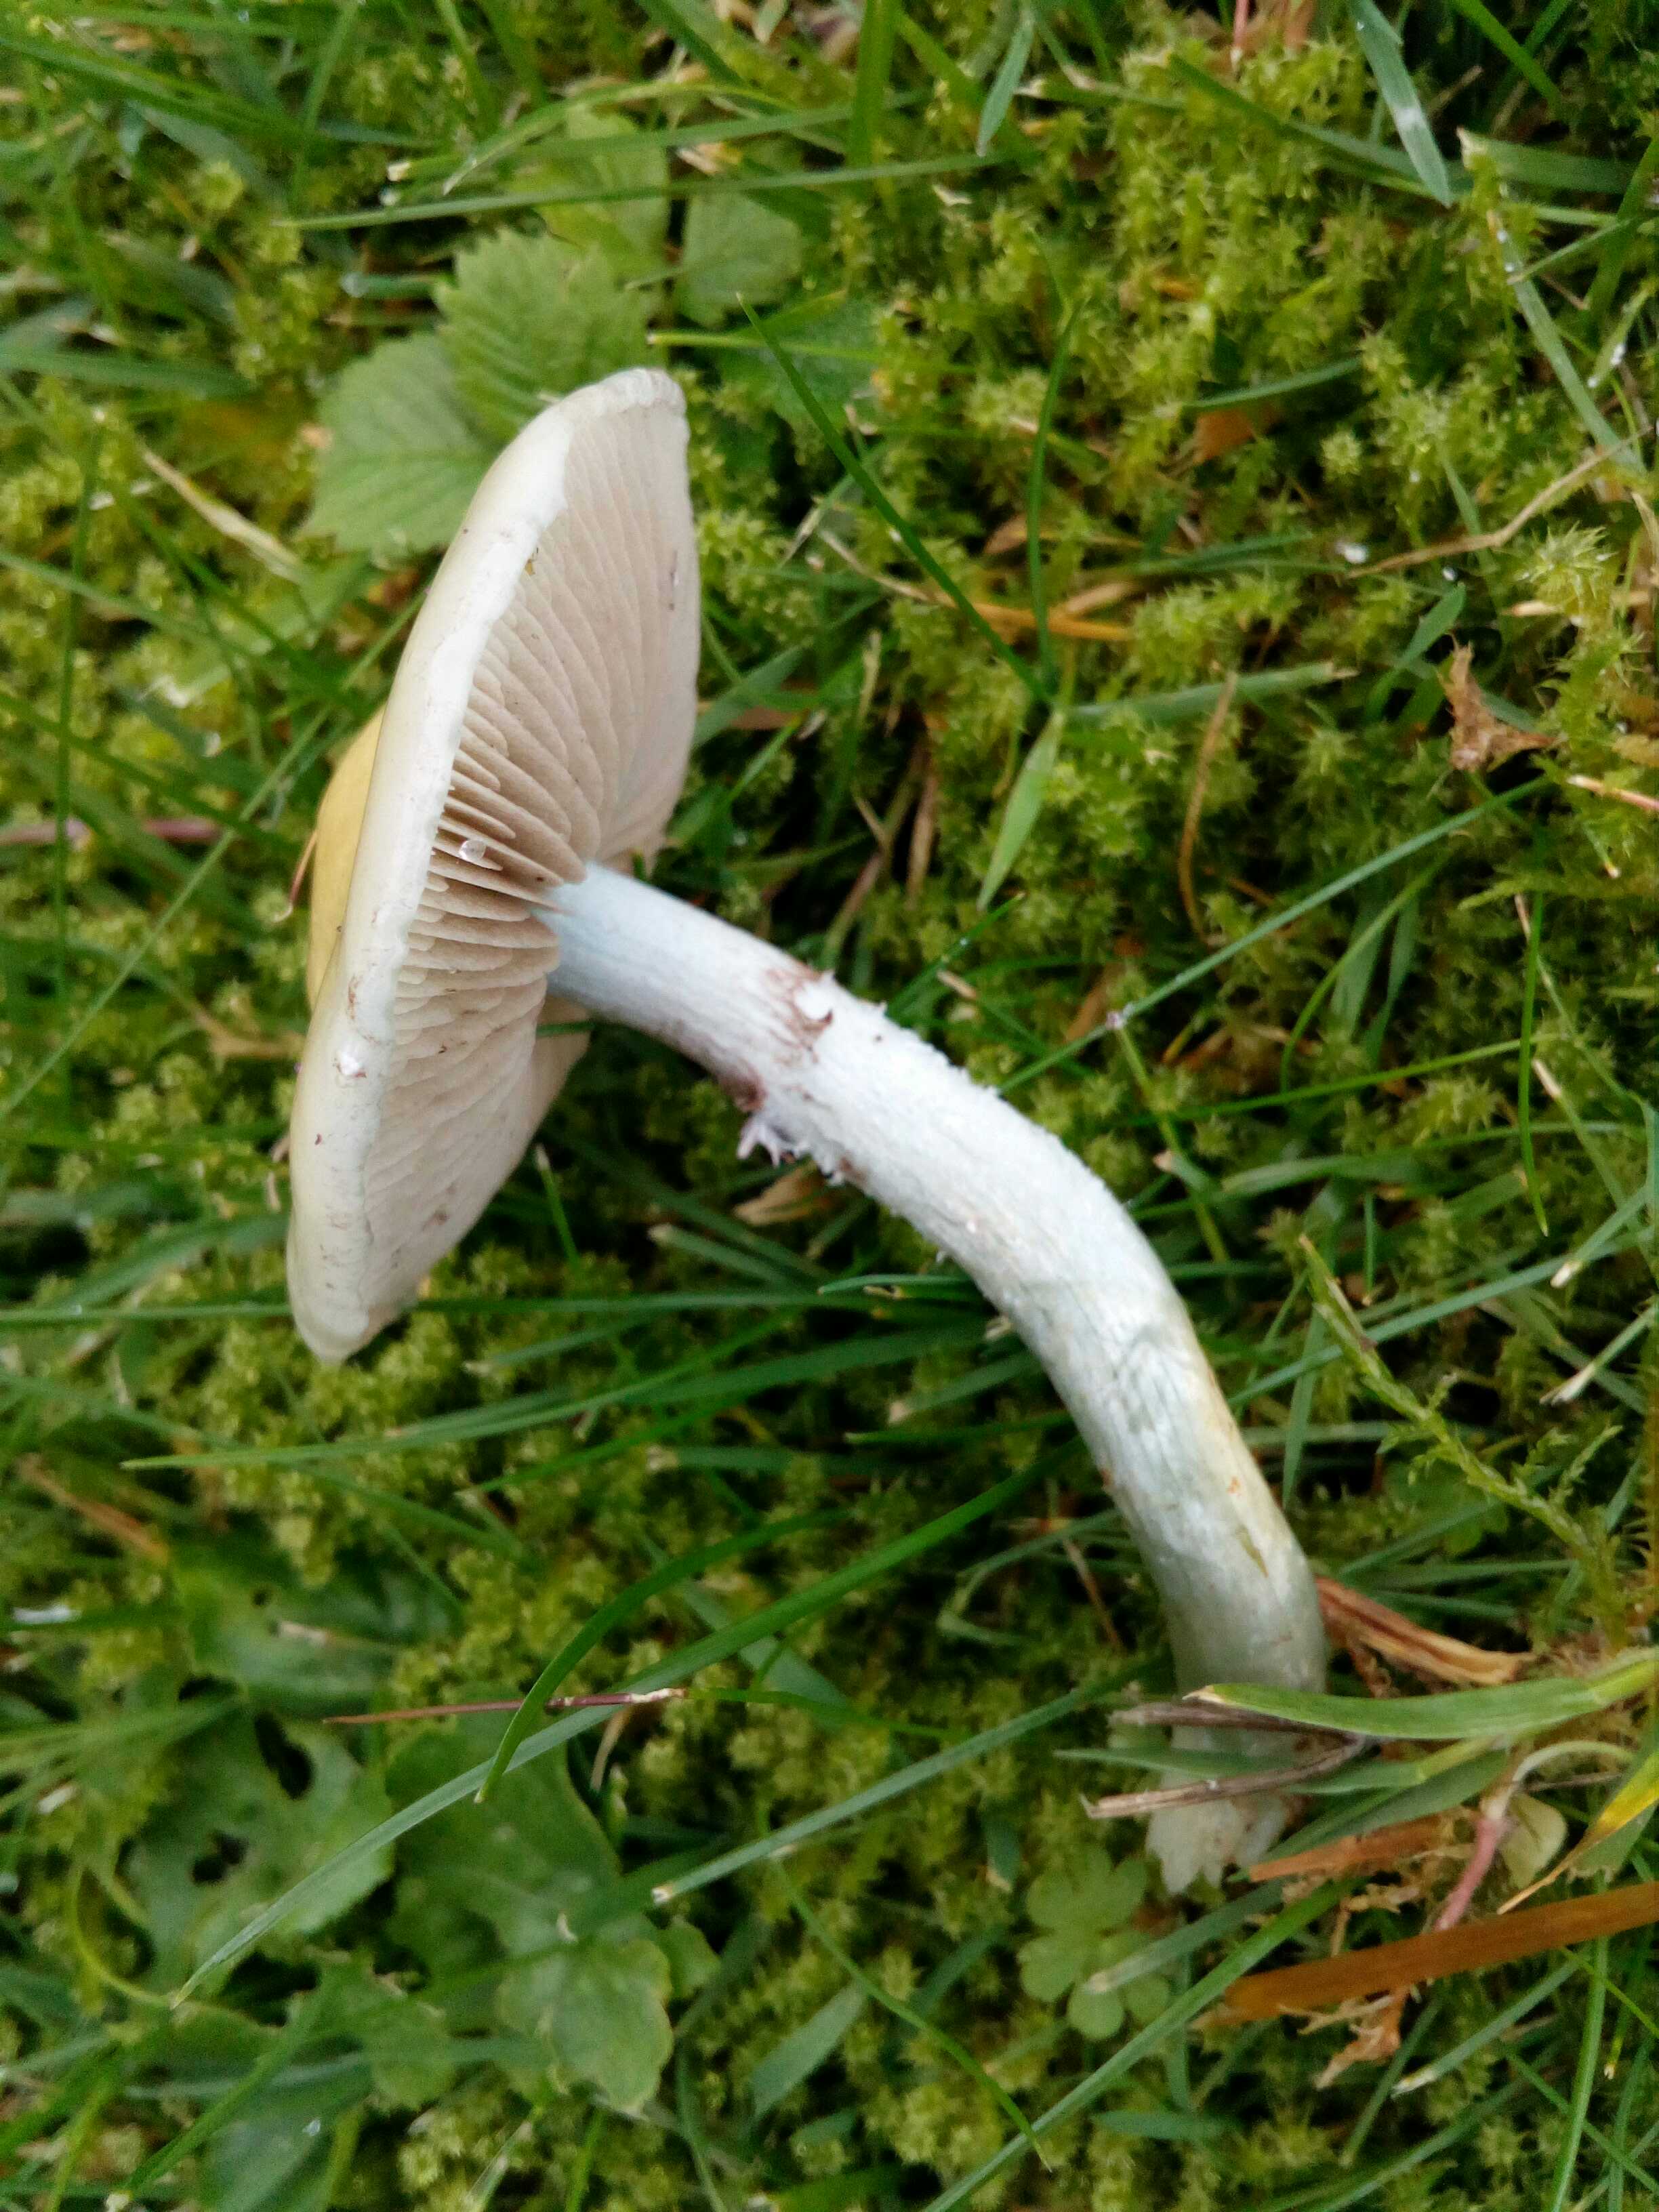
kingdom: Fungi
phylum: Basidiomycota
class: Agaricomycetes
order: Agaricales
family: Strophariaceae
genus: Stropharia
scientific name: Stropharia
